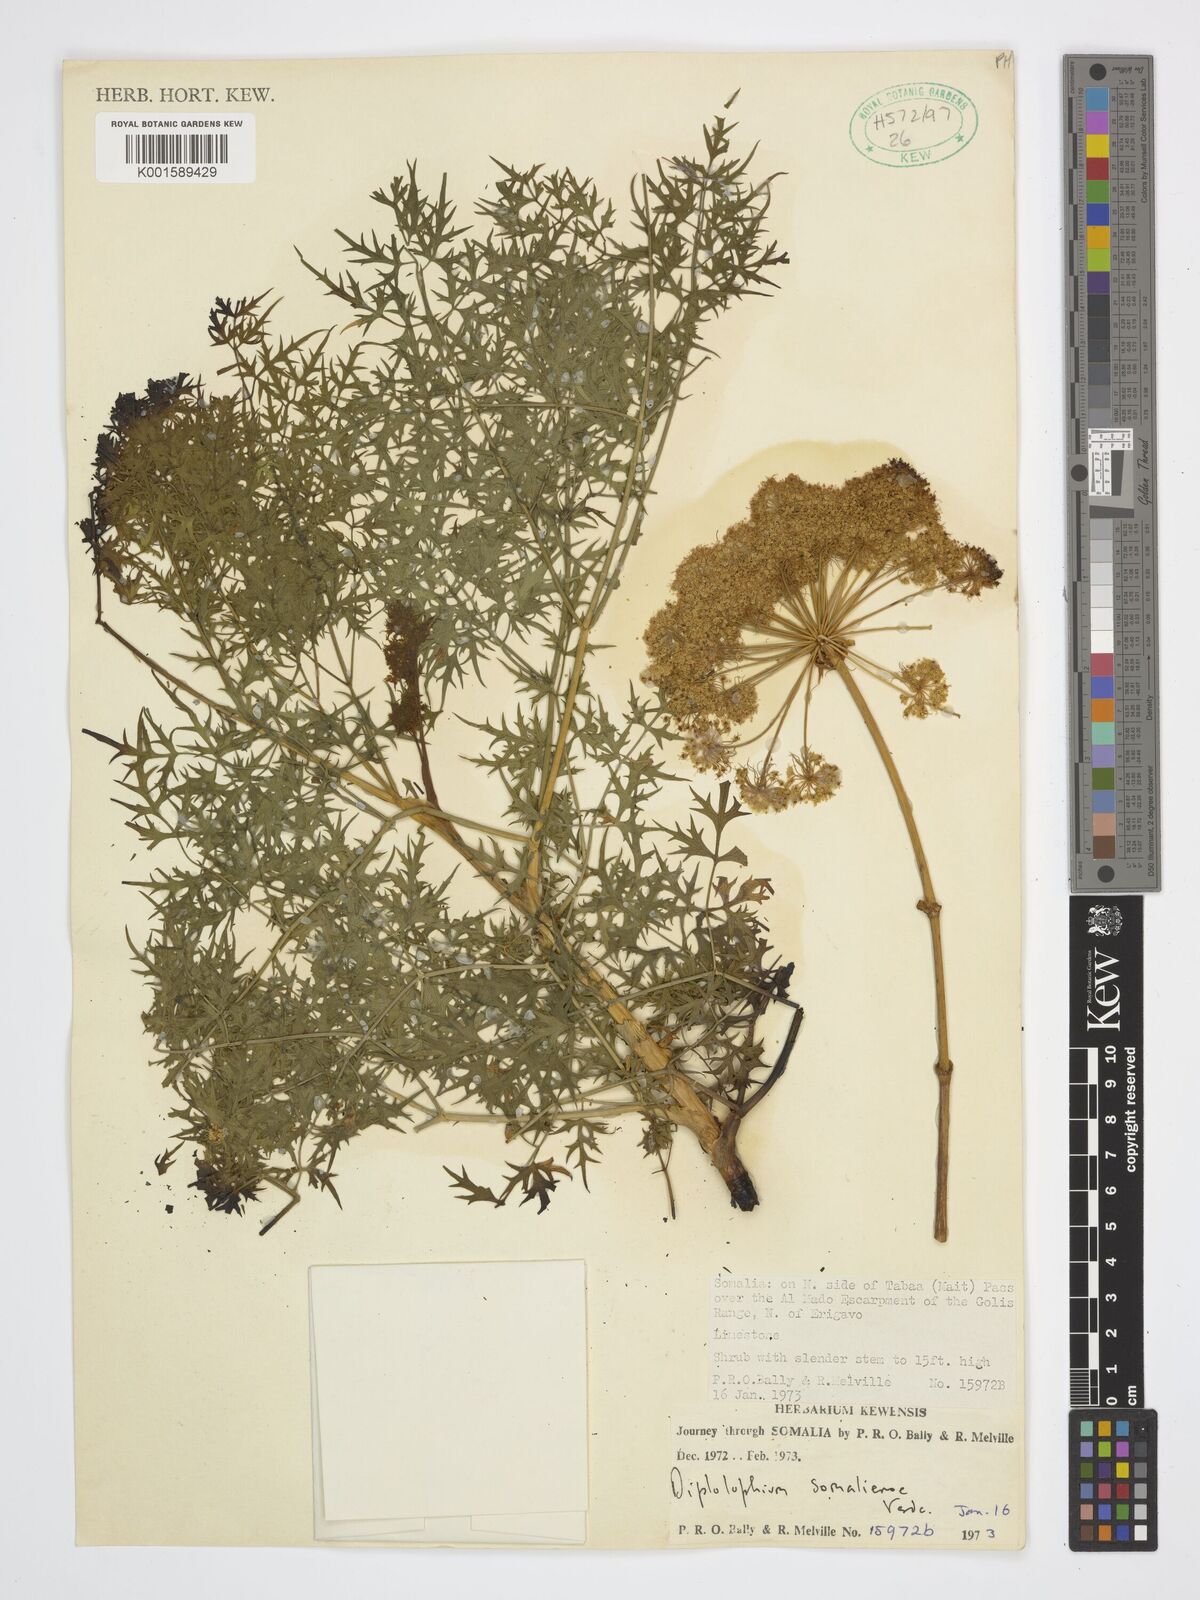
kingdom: Plantae
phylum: Tracheophyta
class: Magnoliopsida
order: Apiales
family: Apiaceae
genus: Diplolophium
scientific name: Diplolophium somaliense
